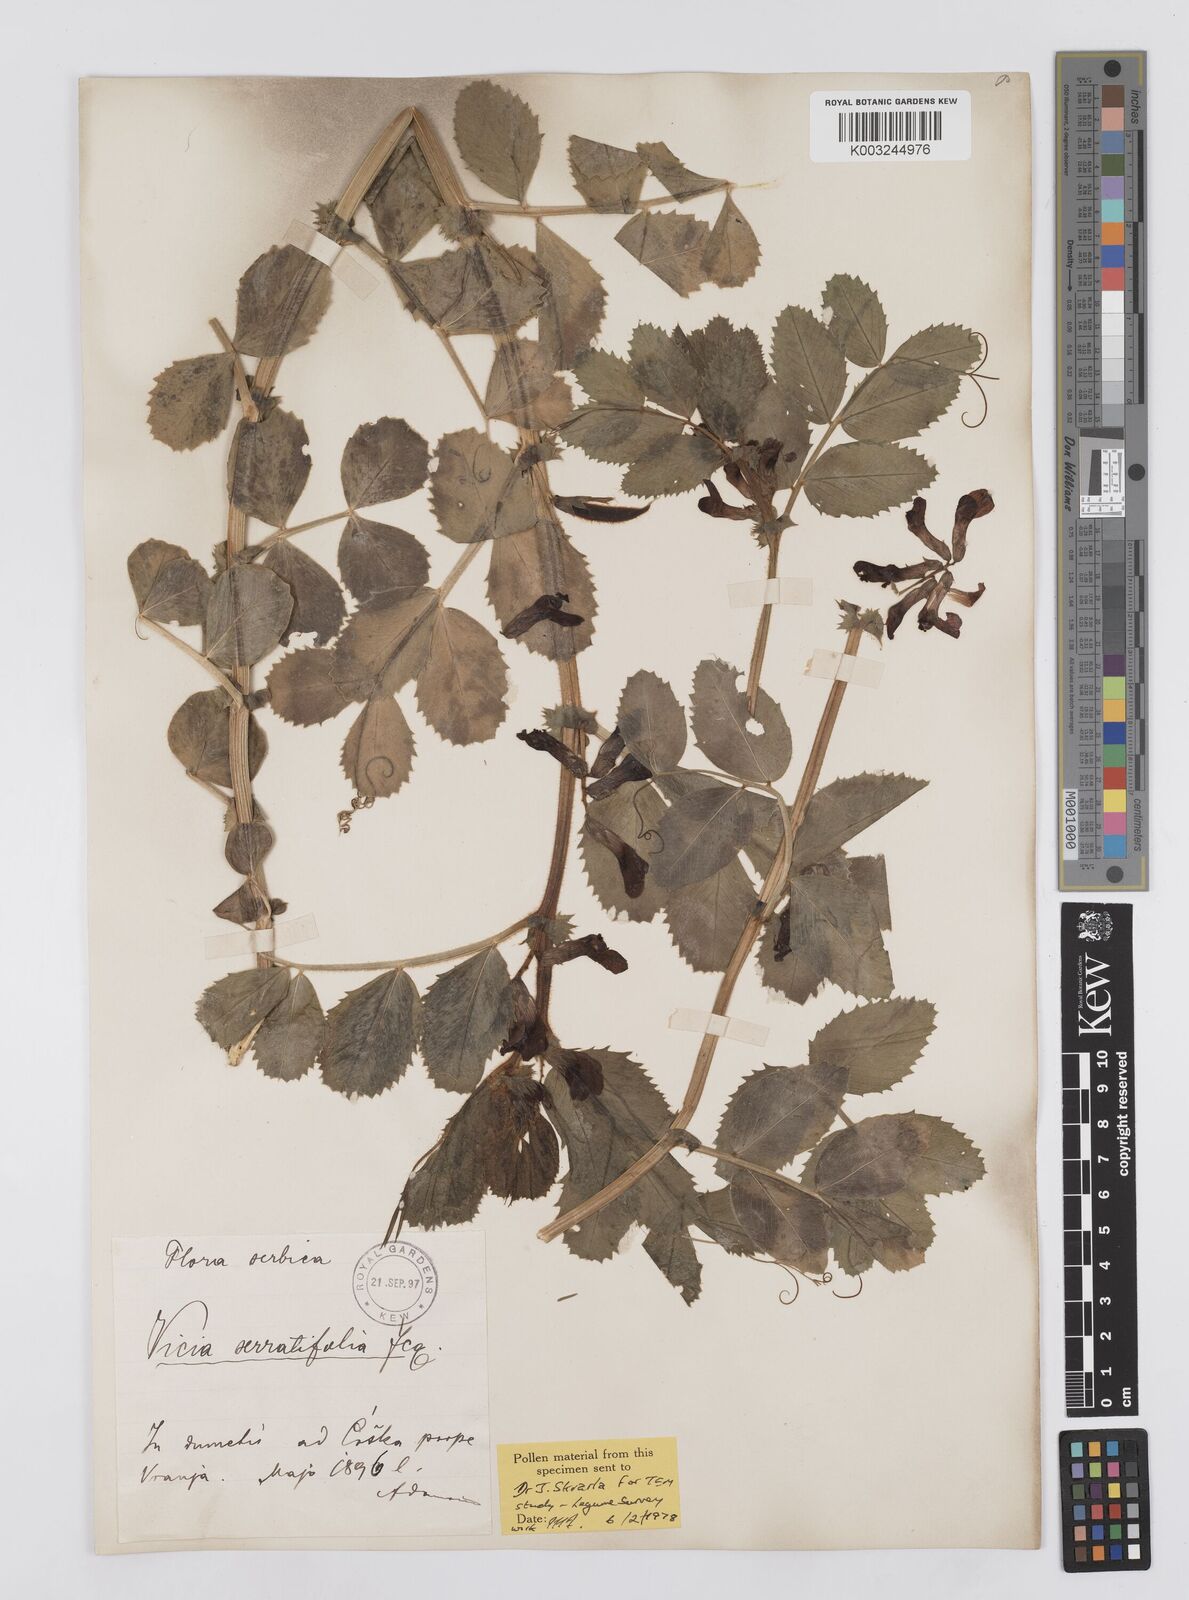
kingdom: Plantae
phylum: Tracheophyta
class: Magnoliopsida
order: Fabales
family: Fabaceae
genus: Vicia
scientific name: Vicia serratifolia
